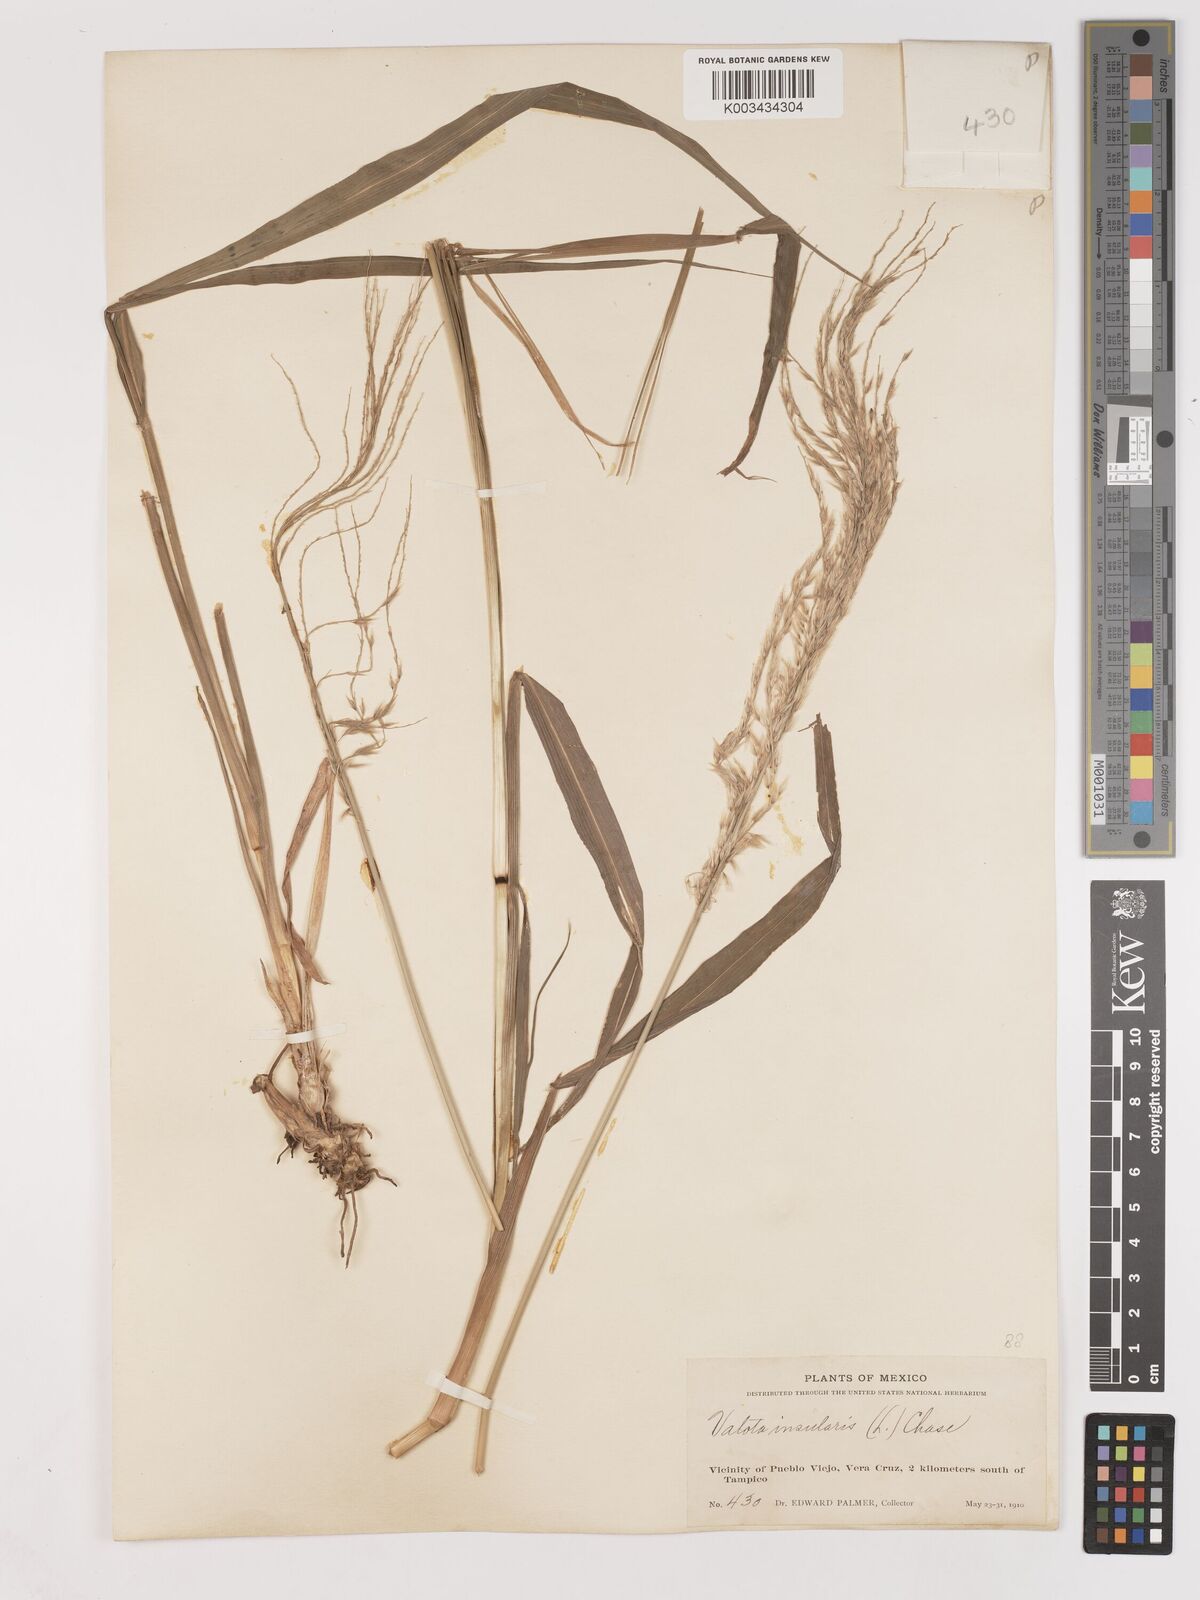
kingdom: Plantae
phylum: Tracheophyta
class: Liliopsida
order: Poales
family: Poaceae
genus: Digitaria
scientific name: Digitaria insularis
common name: Sourgrass
